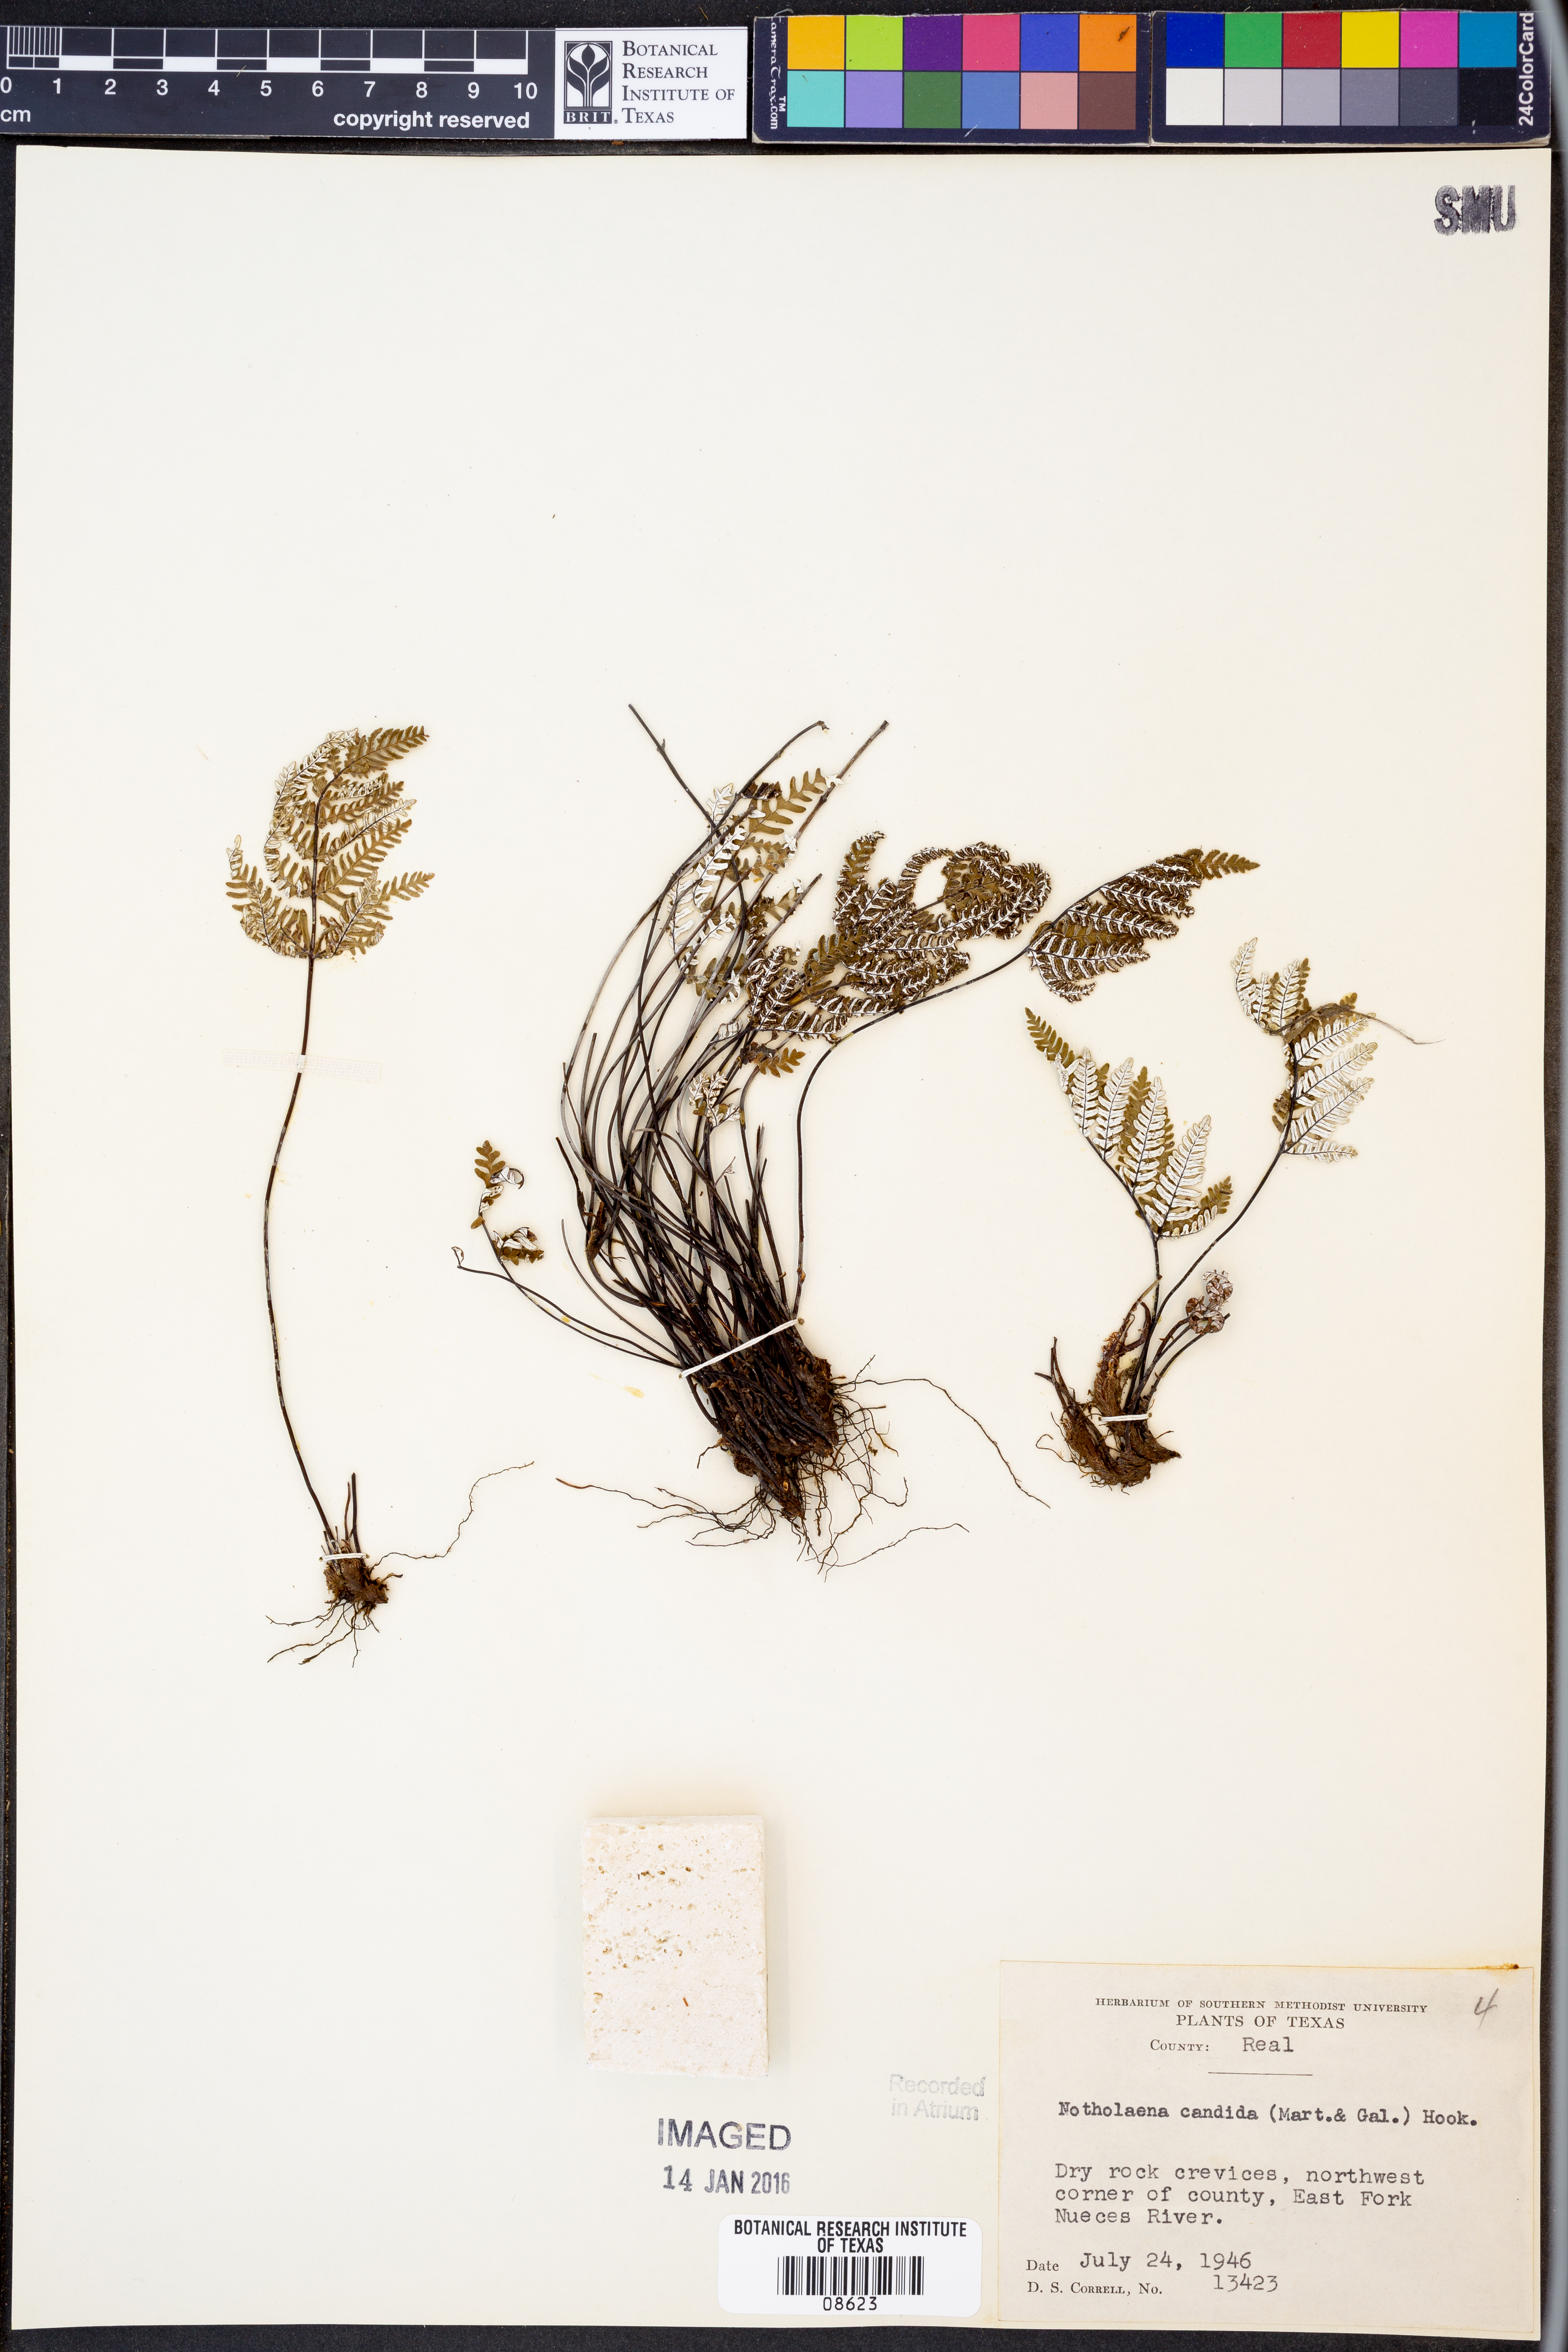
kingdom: Plantae
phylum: Tracheophyta
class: Polypodiopsida
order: Polypodiales
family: Pteridaceae
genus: Notholaena
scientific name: Notholaena candida
